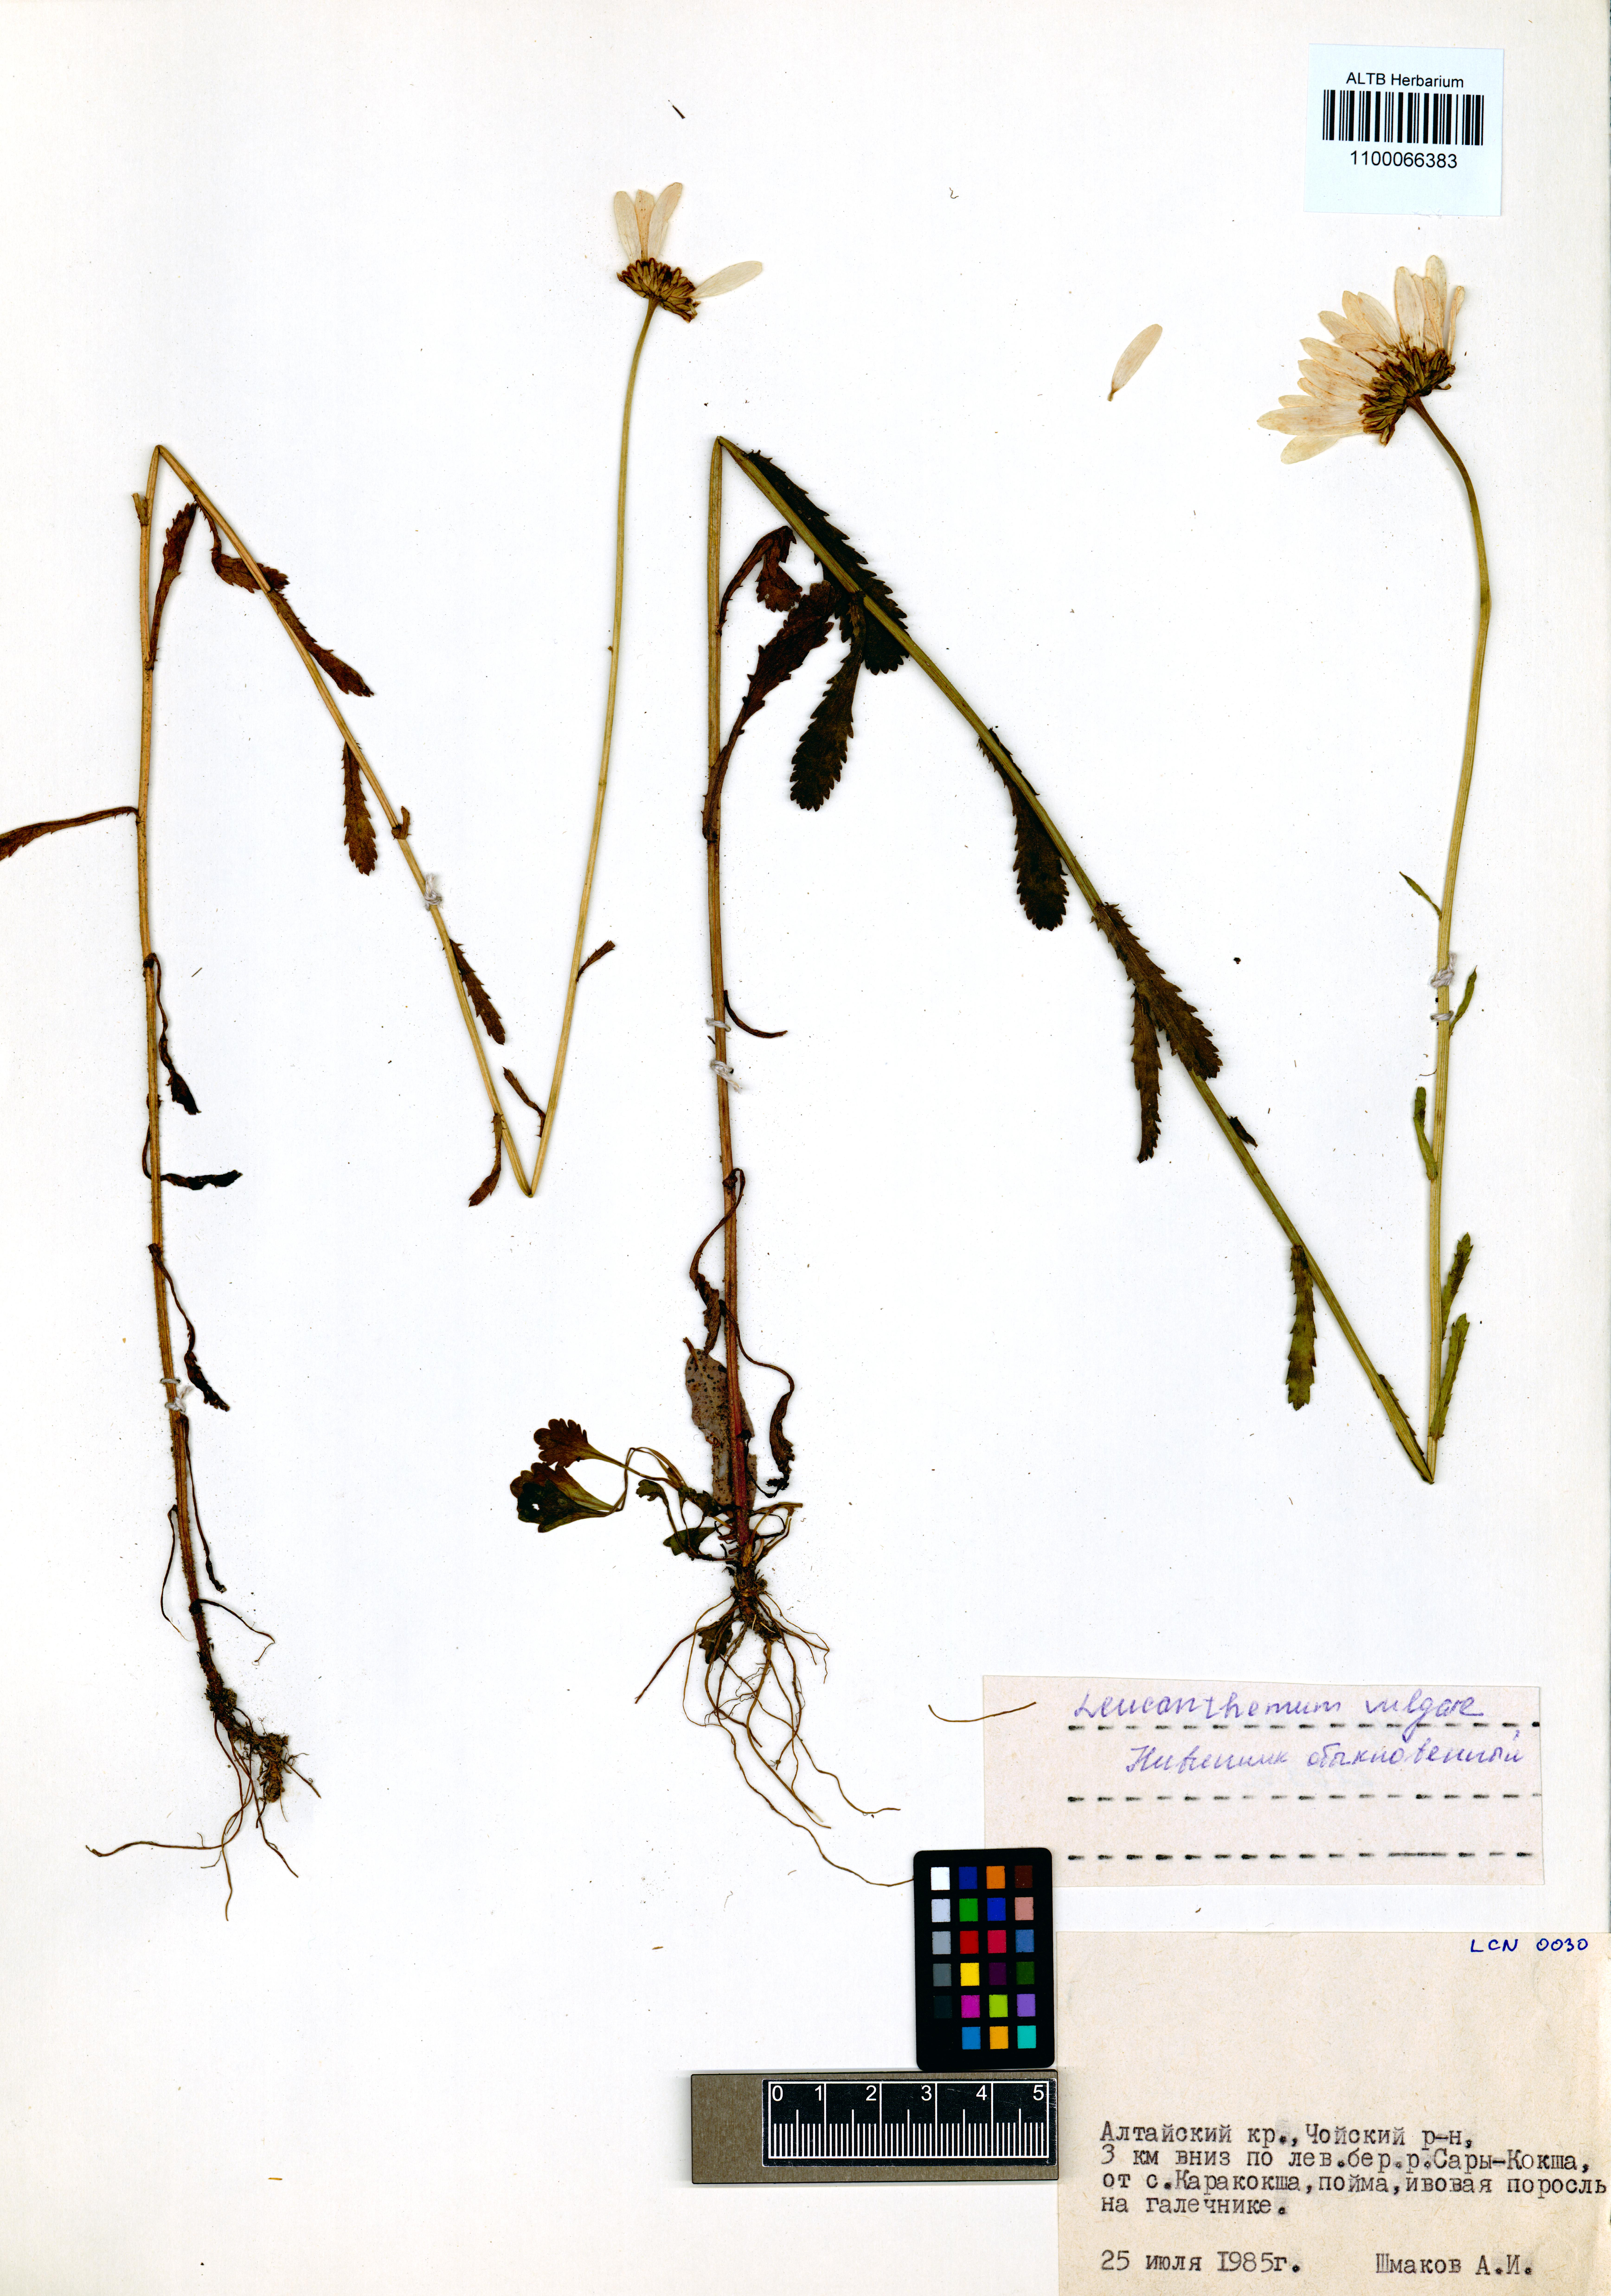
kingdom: Plantae
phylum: Tracheophyta
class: Magnoliopsida
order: Asterales
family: Asteraceae
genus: Leucanthemum
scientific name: Leucanthemum vulgare
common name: Oxeye daisy
